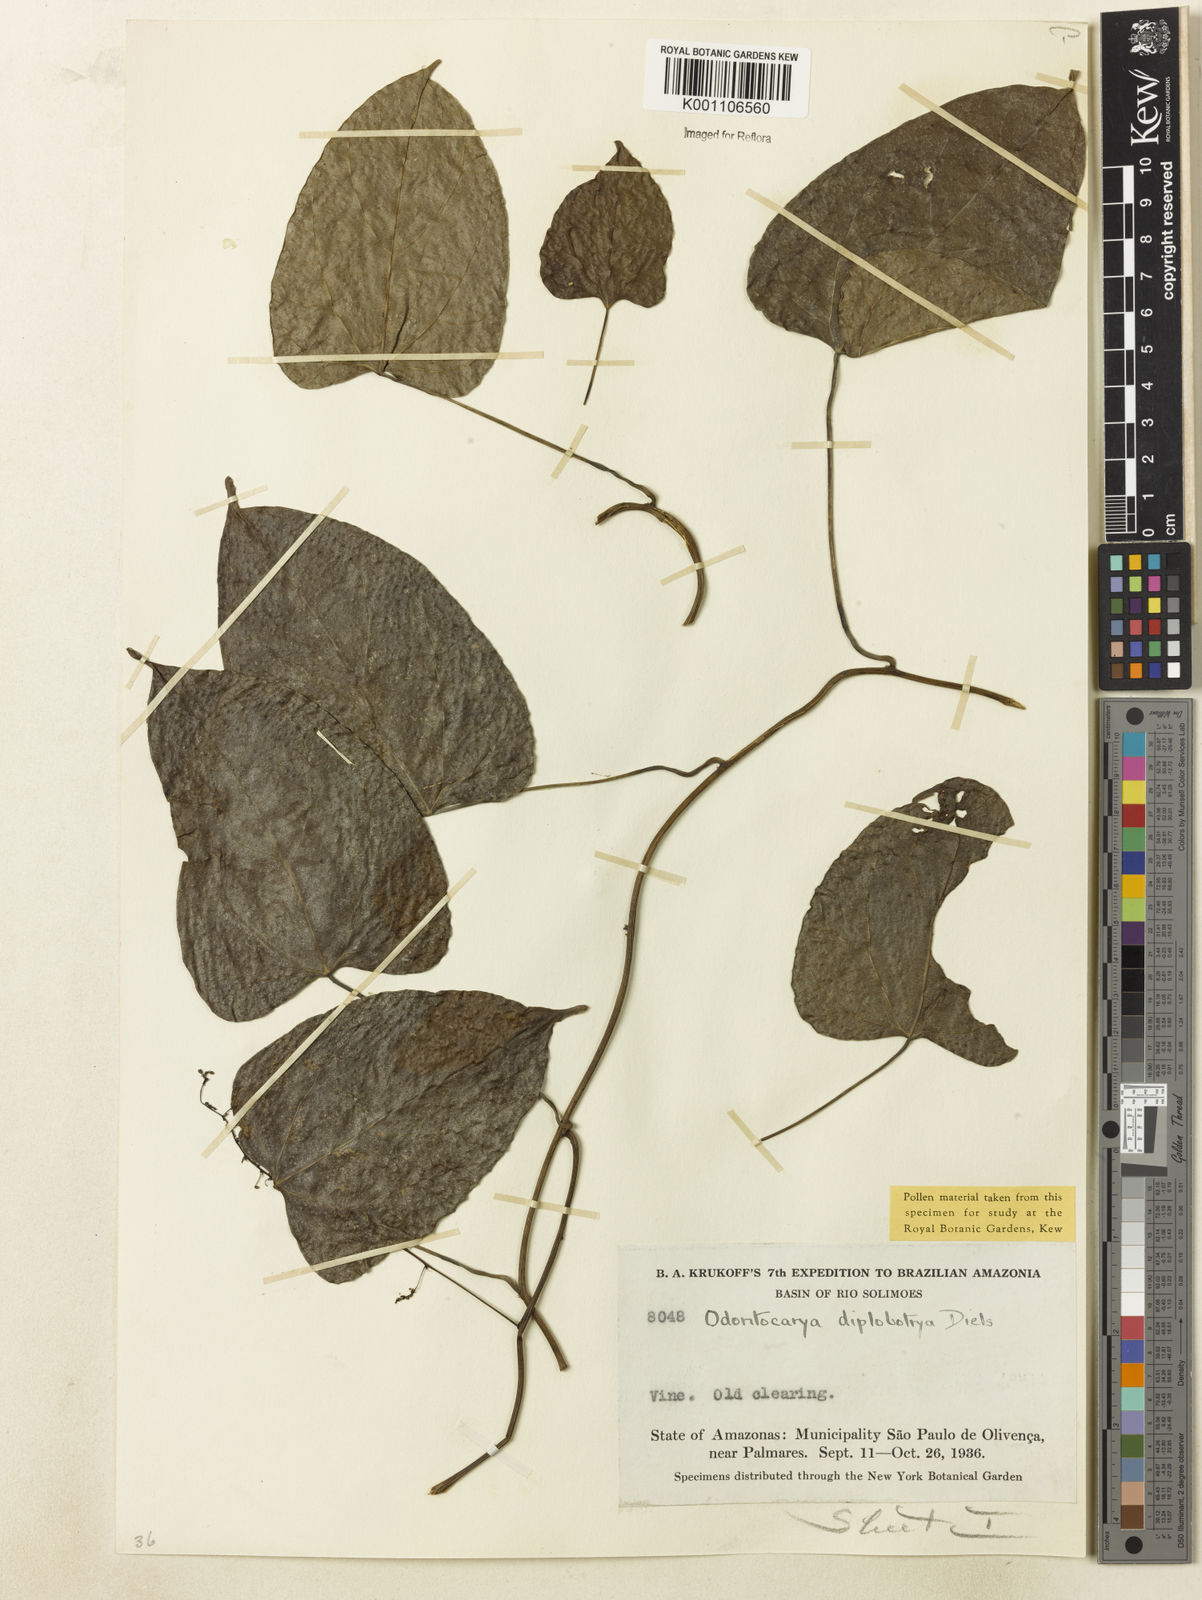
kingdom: Plantae
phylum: Tracheophyta
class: Magnoliopsida
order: Ranunculales
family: Menispermaceae
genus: Odontocarya
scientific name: Odontocarya diplobotrya
